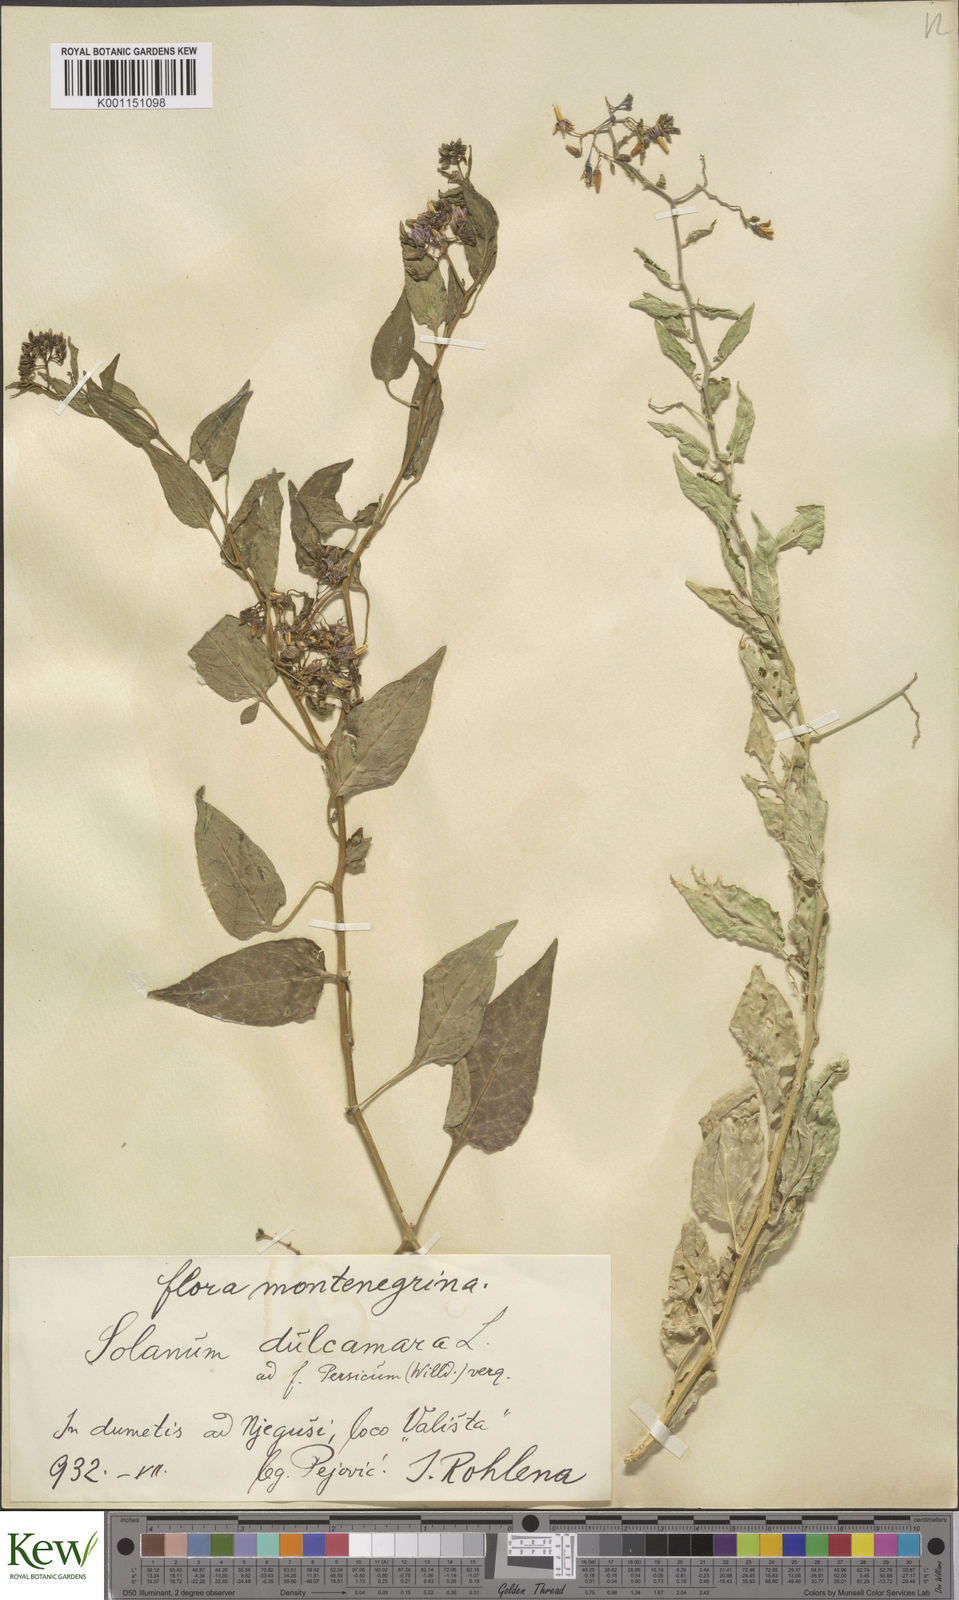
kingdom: Plantae
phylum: Tracheophyta
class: Magnoliopsida
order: Solanales
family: Solanaceae
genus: Solanum
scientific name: Solanum dulcamara
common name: Climbing nightshade
